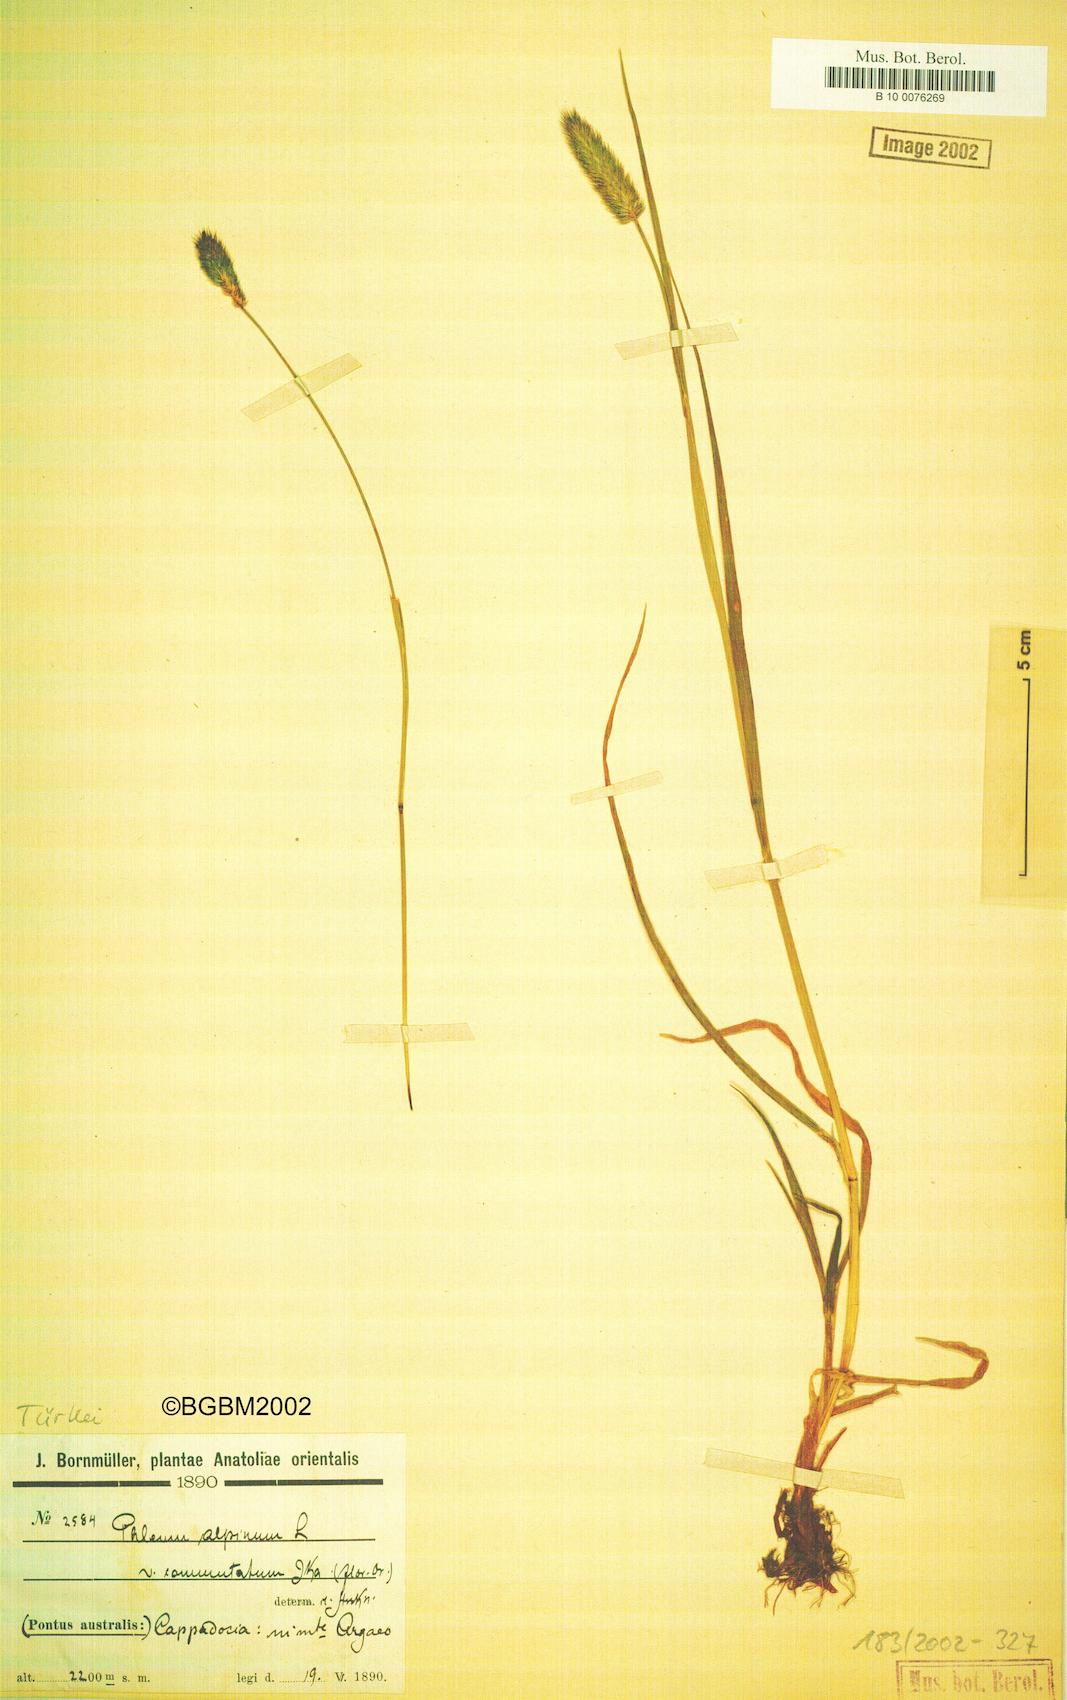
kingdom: Plantae
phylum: Tracheophyta
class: Liliopsida
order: Poales
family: Poaceae
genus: Phleum
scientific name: Phleum alpinum
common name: Alpine cat's-tail
